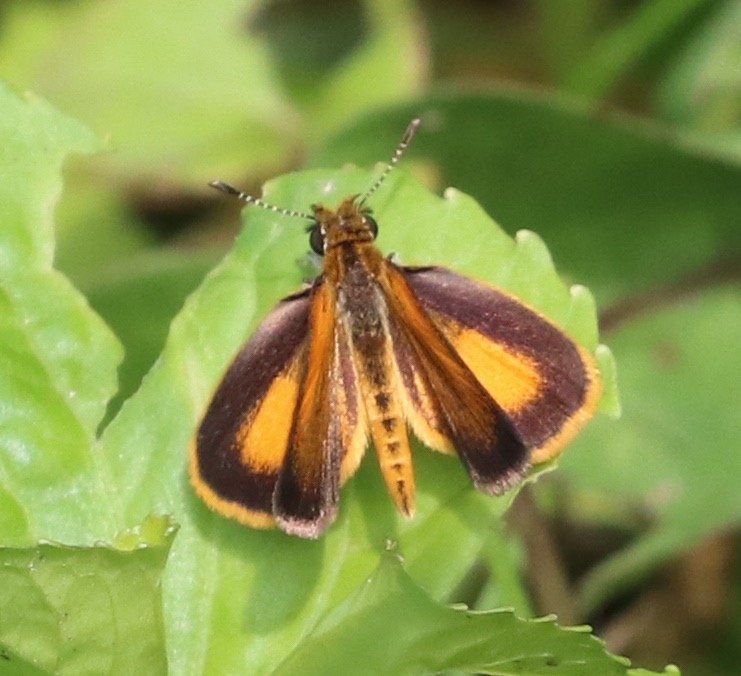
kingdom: Animalia
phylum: Arthropoda
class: Insecta
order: Lepidoptera
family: Hesperiidae
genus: Ancyloxypha
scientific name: Ancyloxypha numitor
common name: Least Skipper
